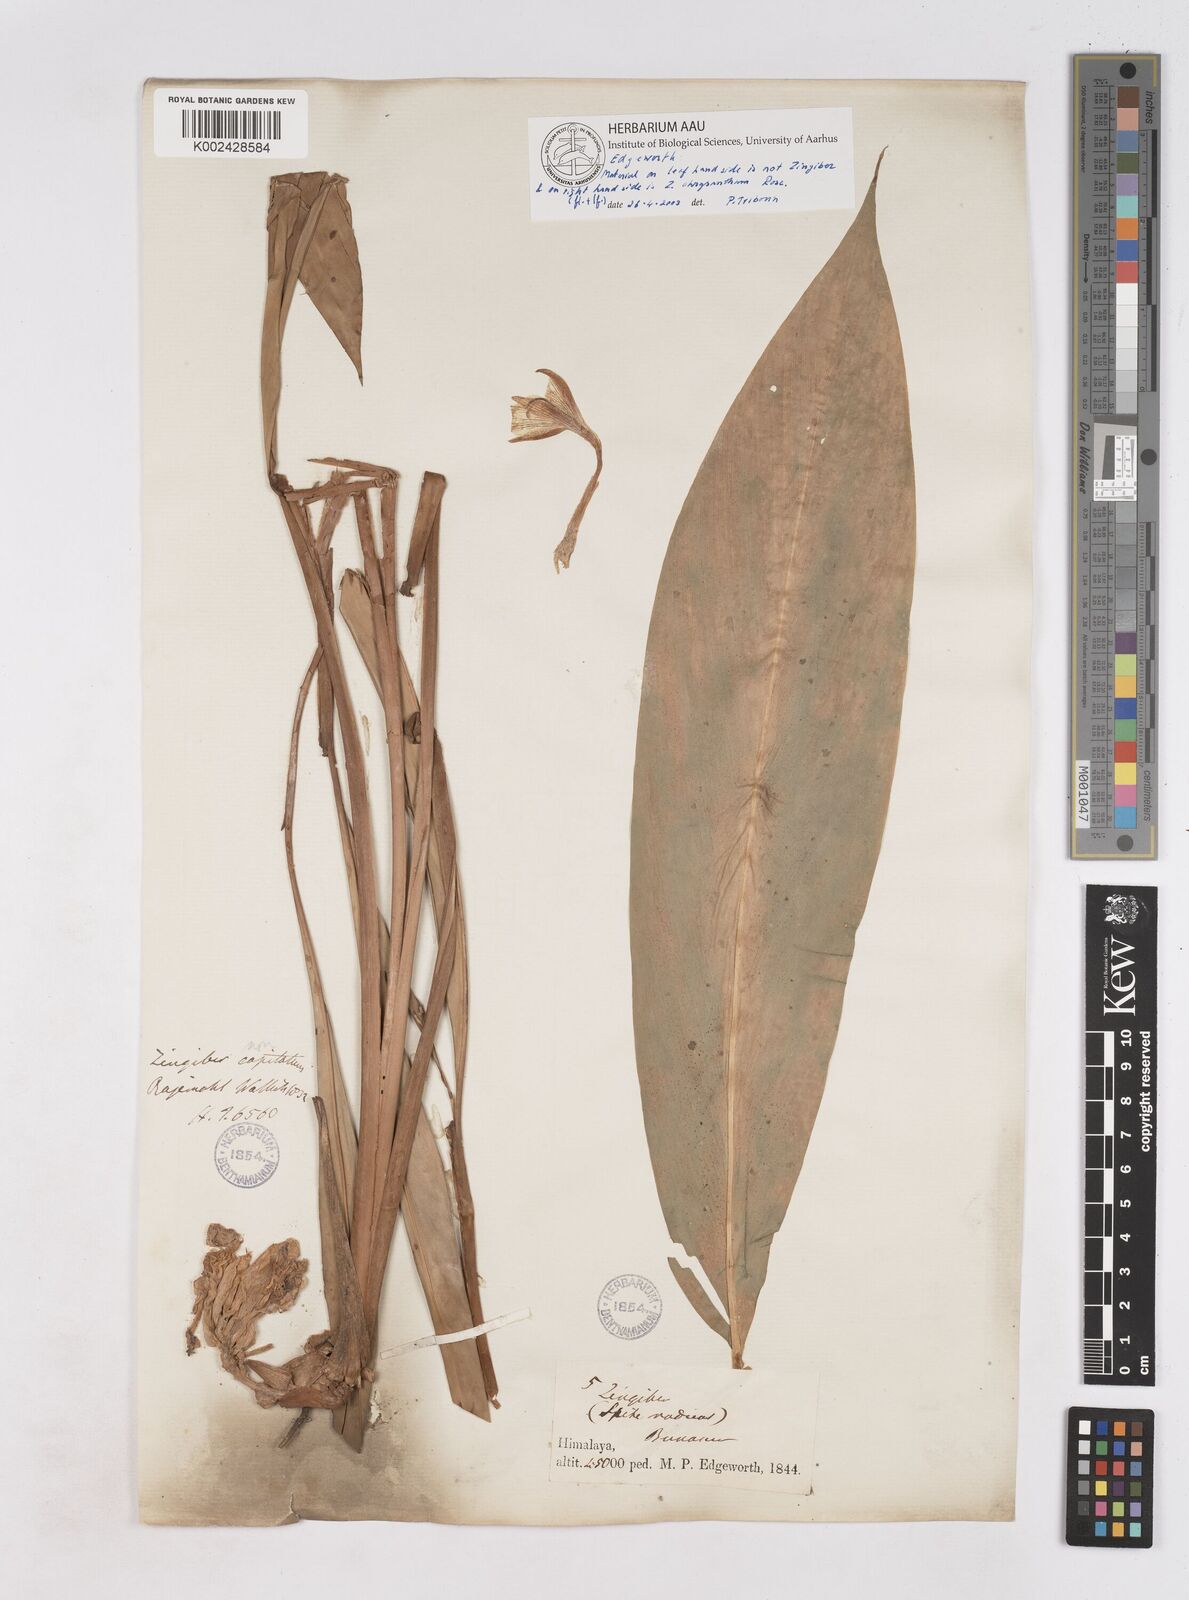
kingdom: Plantae
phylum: Tracheophyta
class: Liliopsida
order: Zingiberales
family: Zingiberaceae
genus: Zingiber
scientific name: Zingiber chrysanthum
